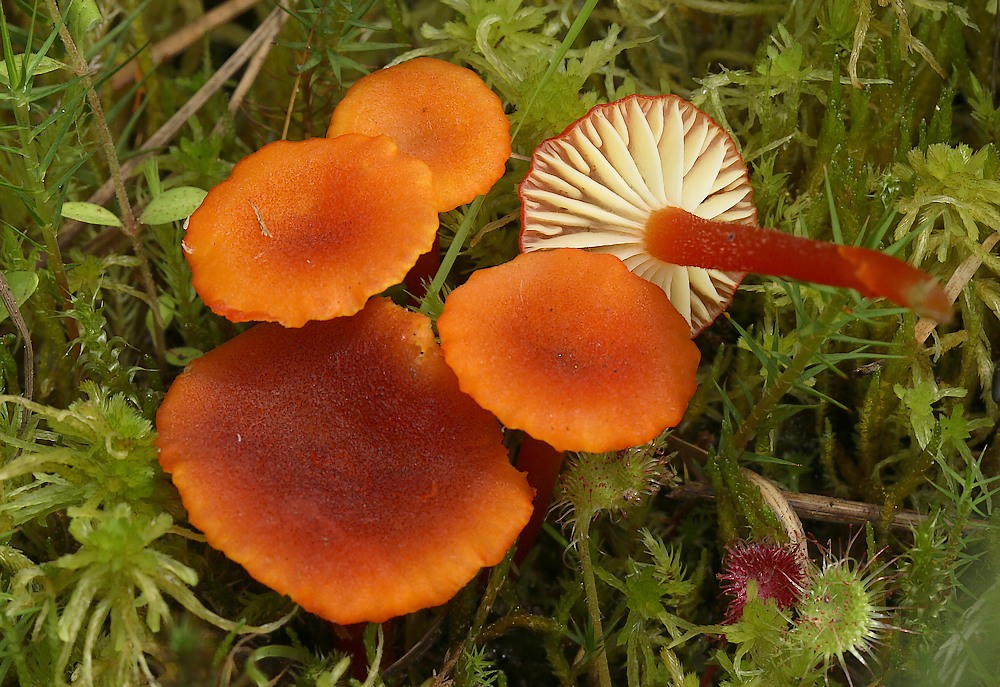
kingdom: Fungi
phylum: Basidiomycota
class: Agaricomycetes
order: Agaricales
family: Hygrophoraceae
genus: Hygrocybe
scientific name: Hygrocybe coccineocrenata
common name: tørvemos-vokshat
